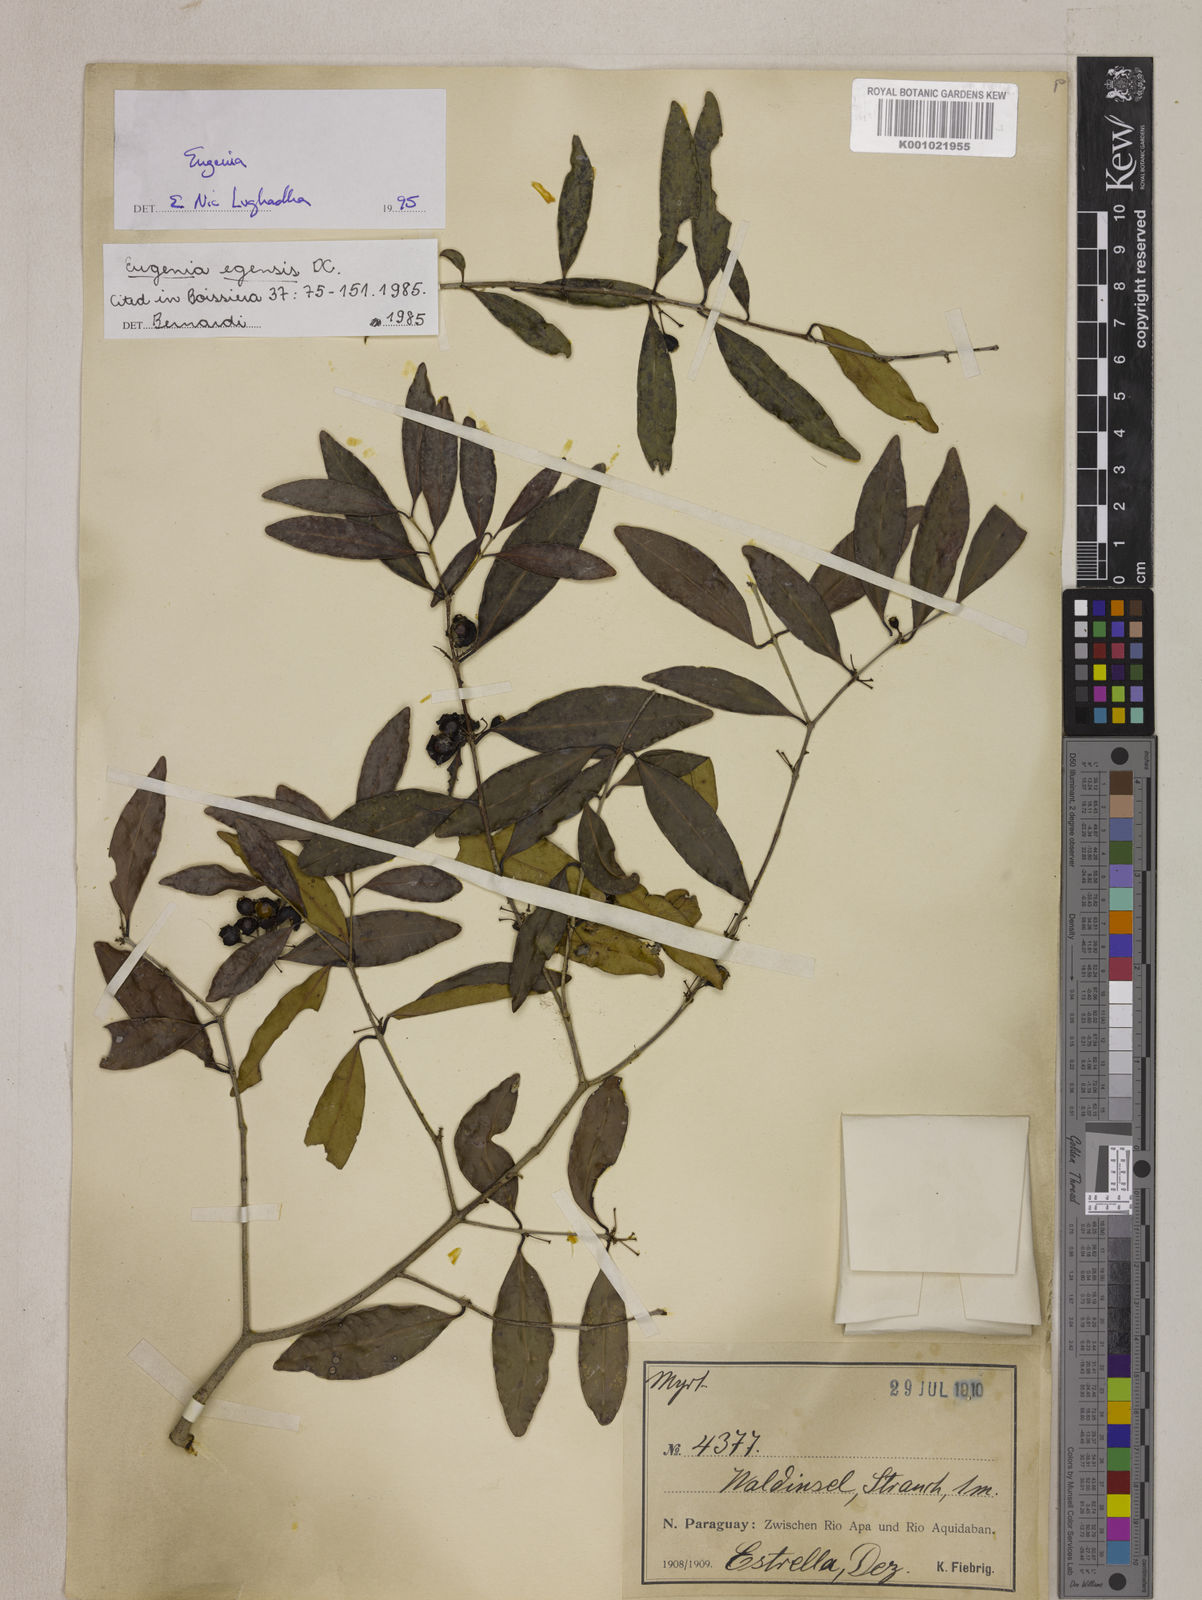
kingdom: Plantae
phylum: Tracheophyta
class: Magnoliopsida
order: Myrtales
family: Myrtaceae
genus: Eugenia
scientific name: Eugenia egensis
